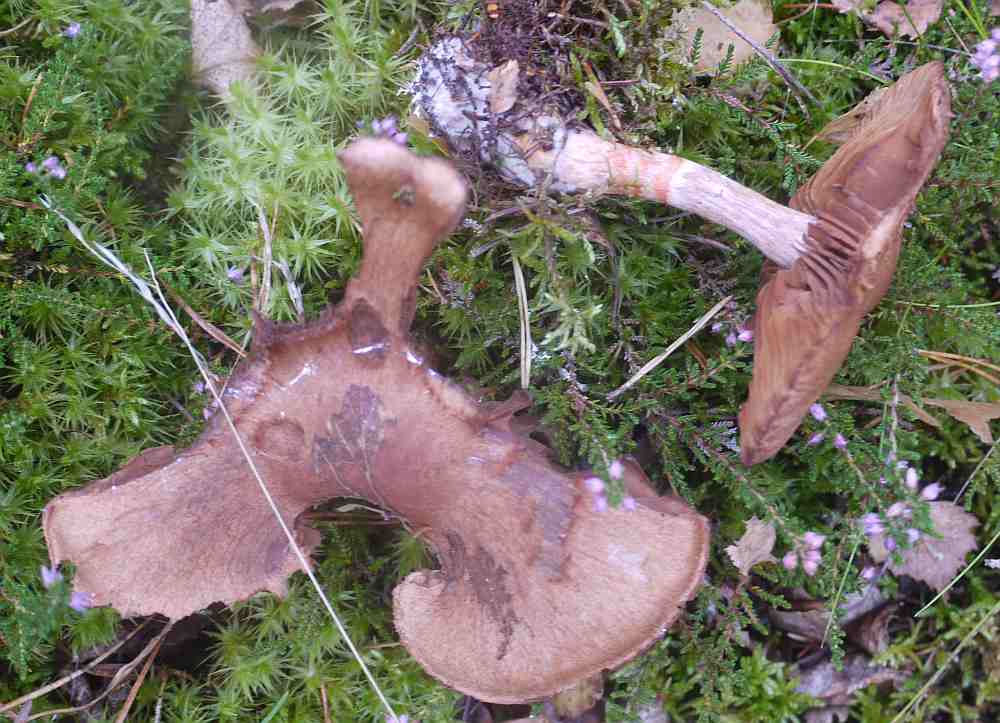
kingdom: Fungi
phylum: Basidiomycota
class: Agaricomycetes
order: Agaricales
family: Cortinariaceae
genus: Cortinarius
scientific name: Cortinarius armillatus
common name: cinnoberbæltet slørhat
